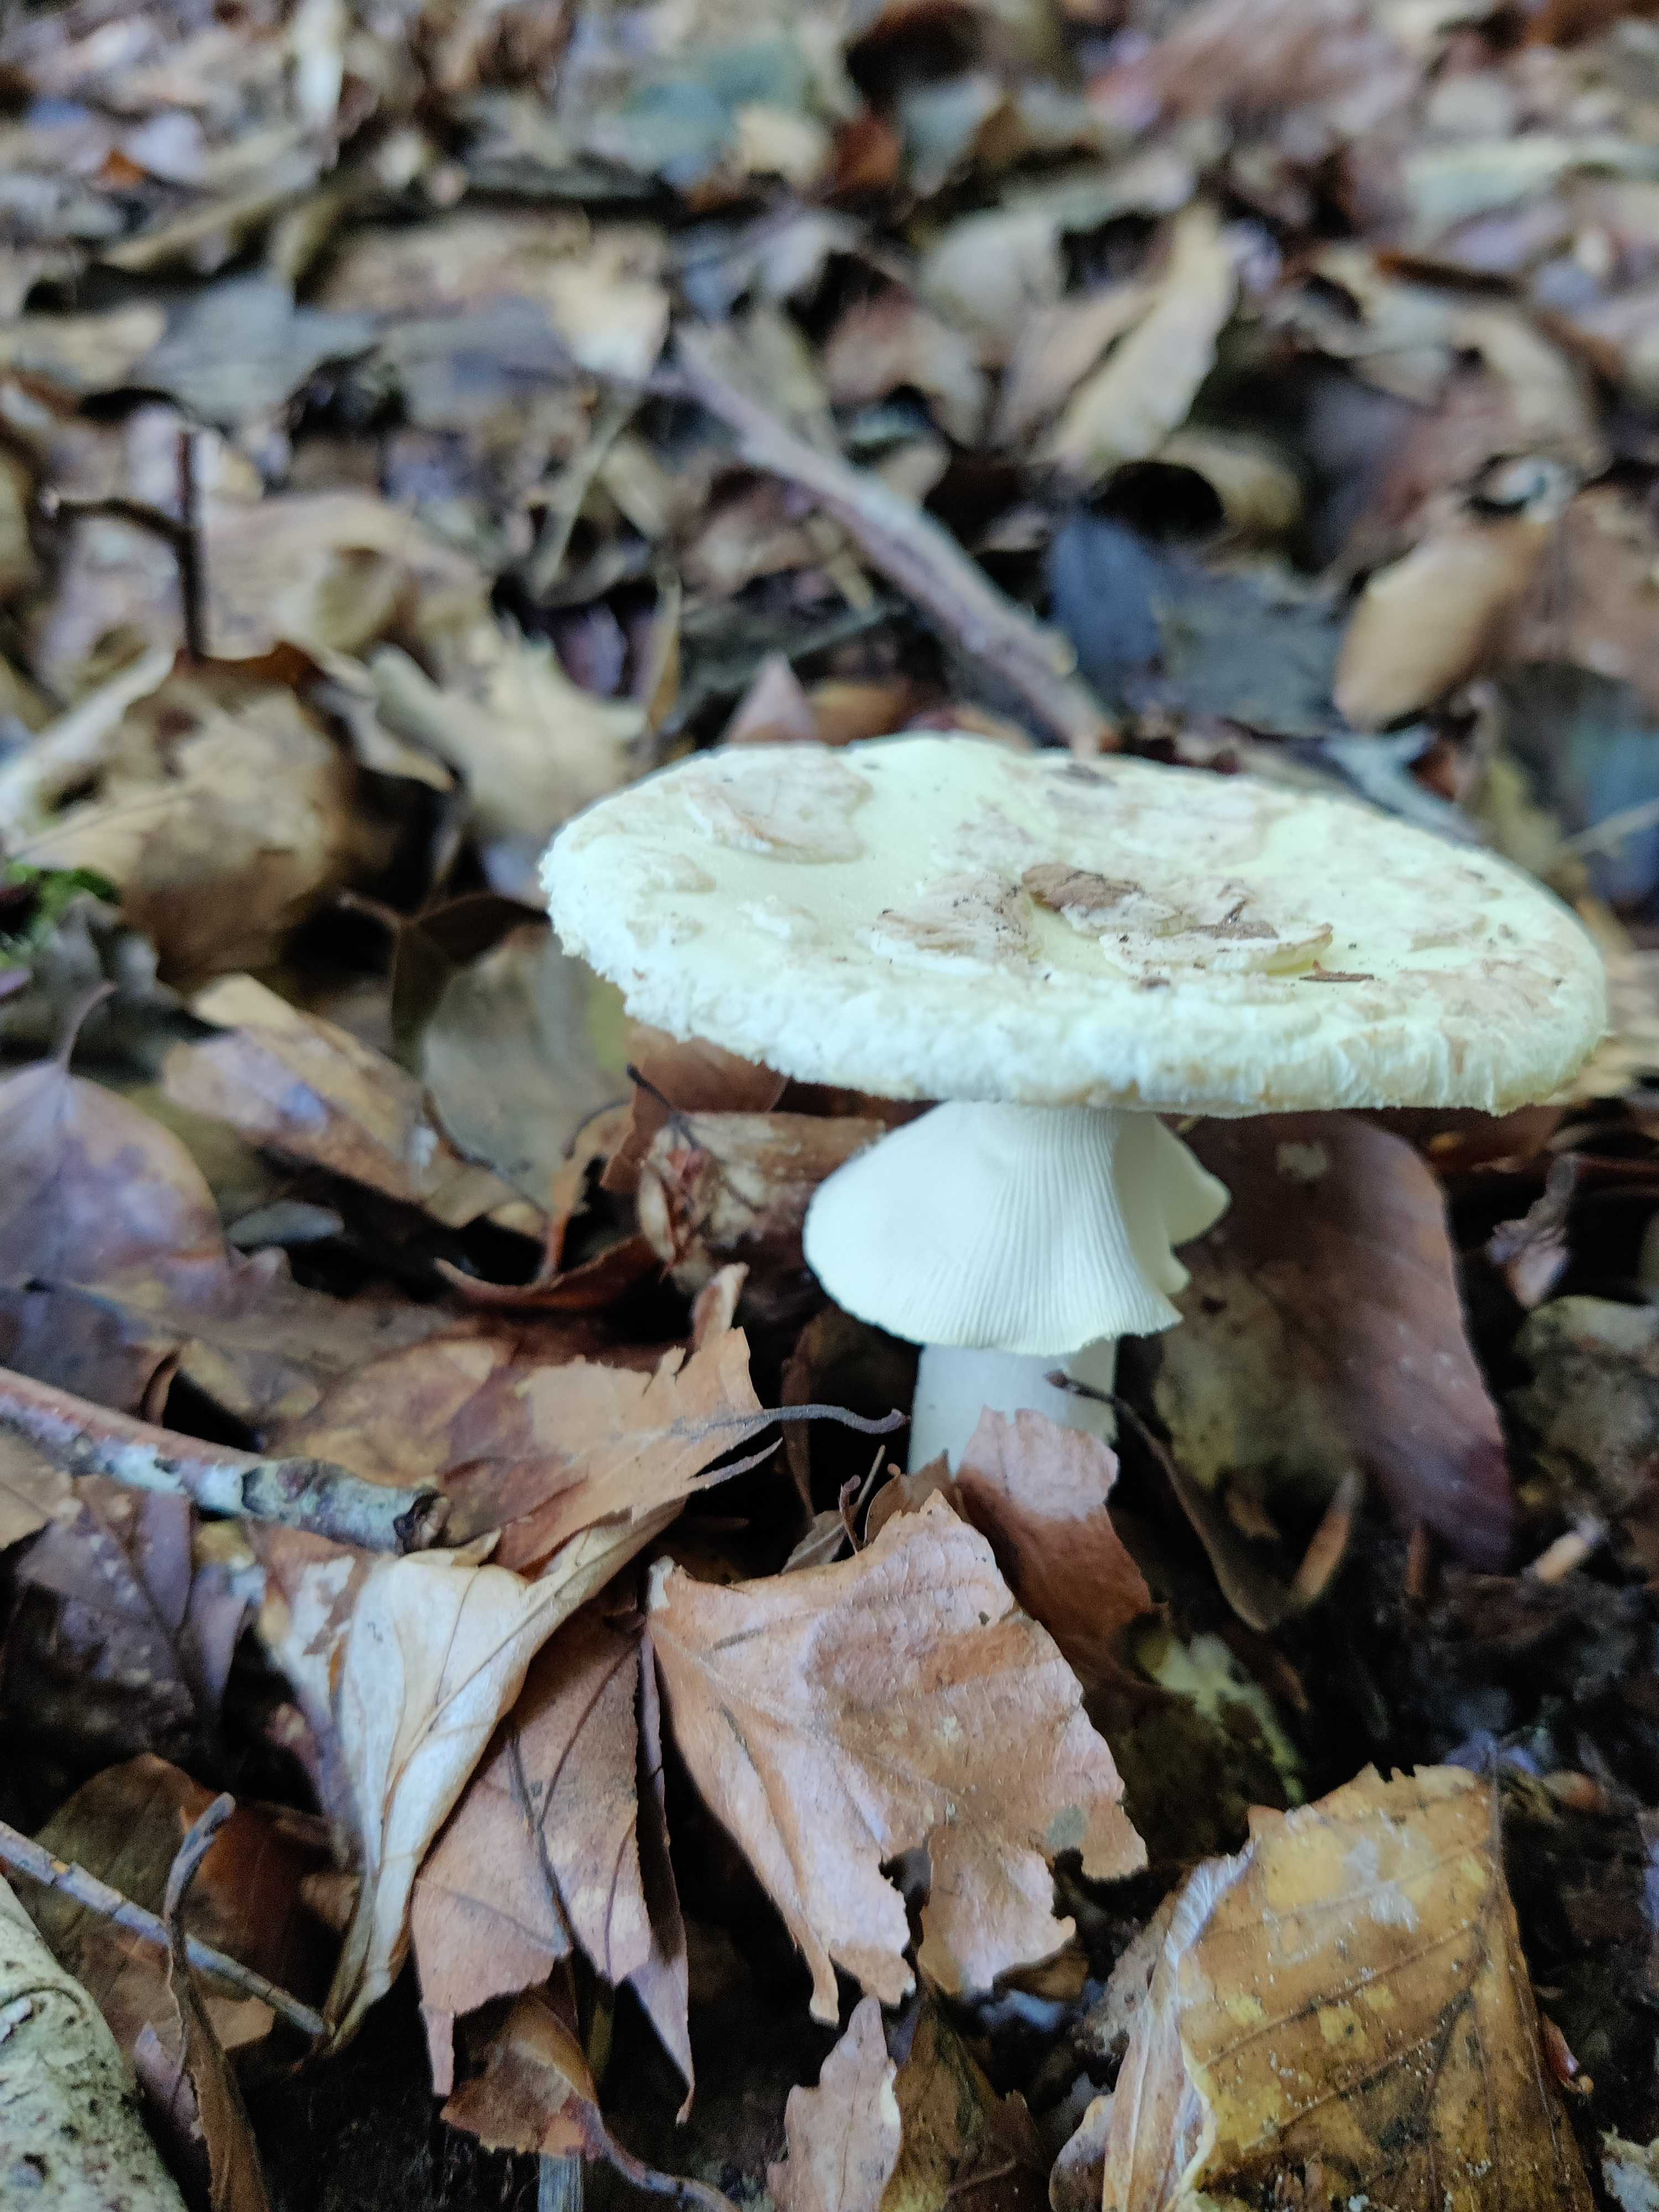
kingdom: Fungi
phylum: Basidiomycota
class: Agaricomycetes
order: Agaricales
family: Amanitaceae
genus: Amanita
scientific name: Amanita citrina
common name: kugleknoldet fluesvamp
